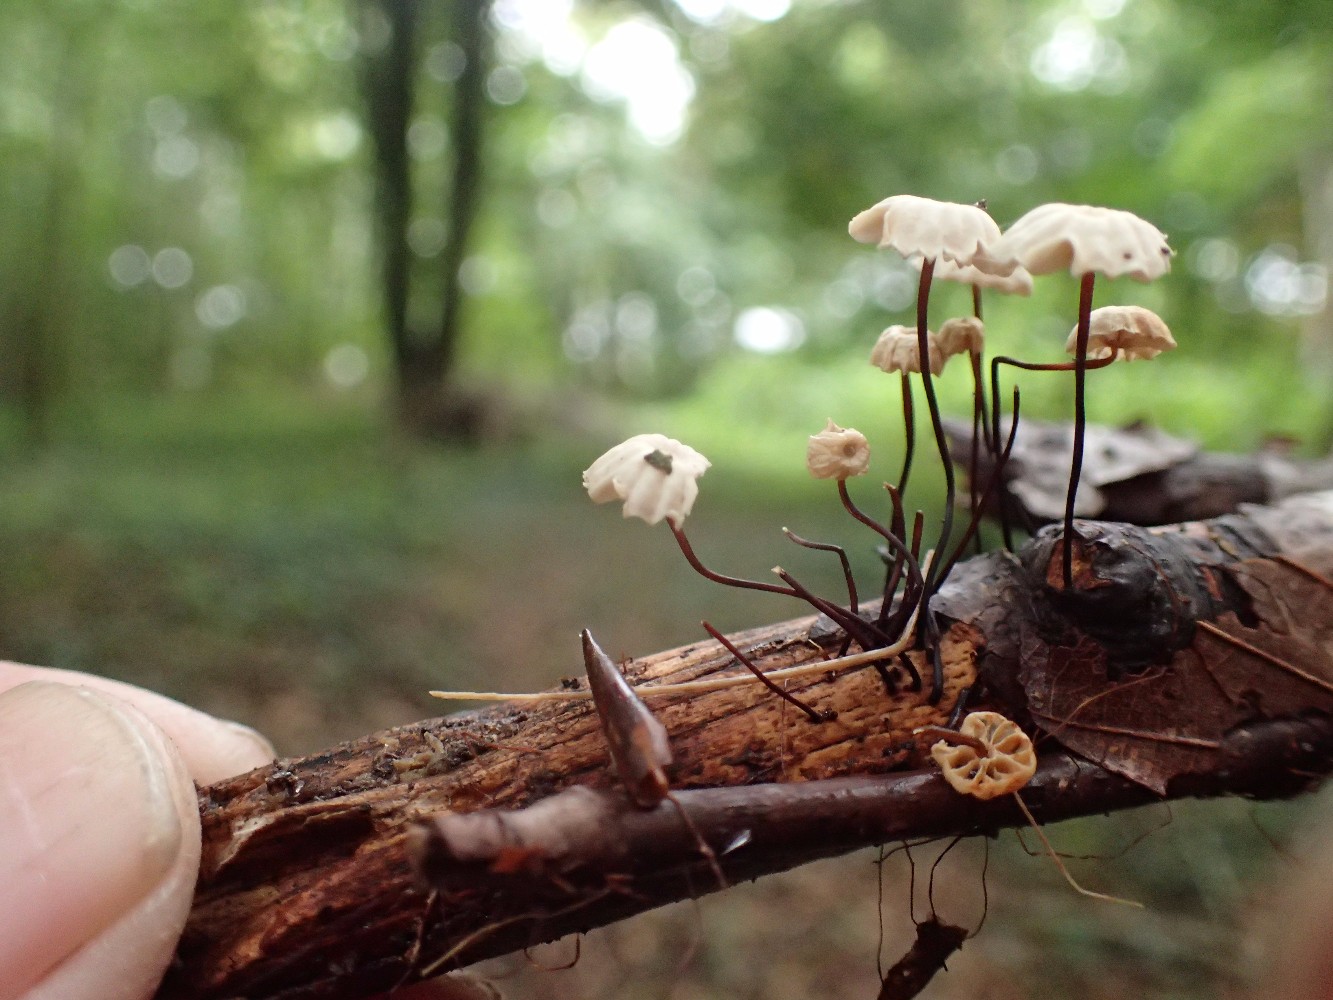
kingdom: Fungi
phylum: Basidiomycota
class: Agaricomycetes
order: Agaricales
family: Marasmiaceae
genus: Marasmius
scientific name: Marasmius rotula
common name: hjul-bruskhat
